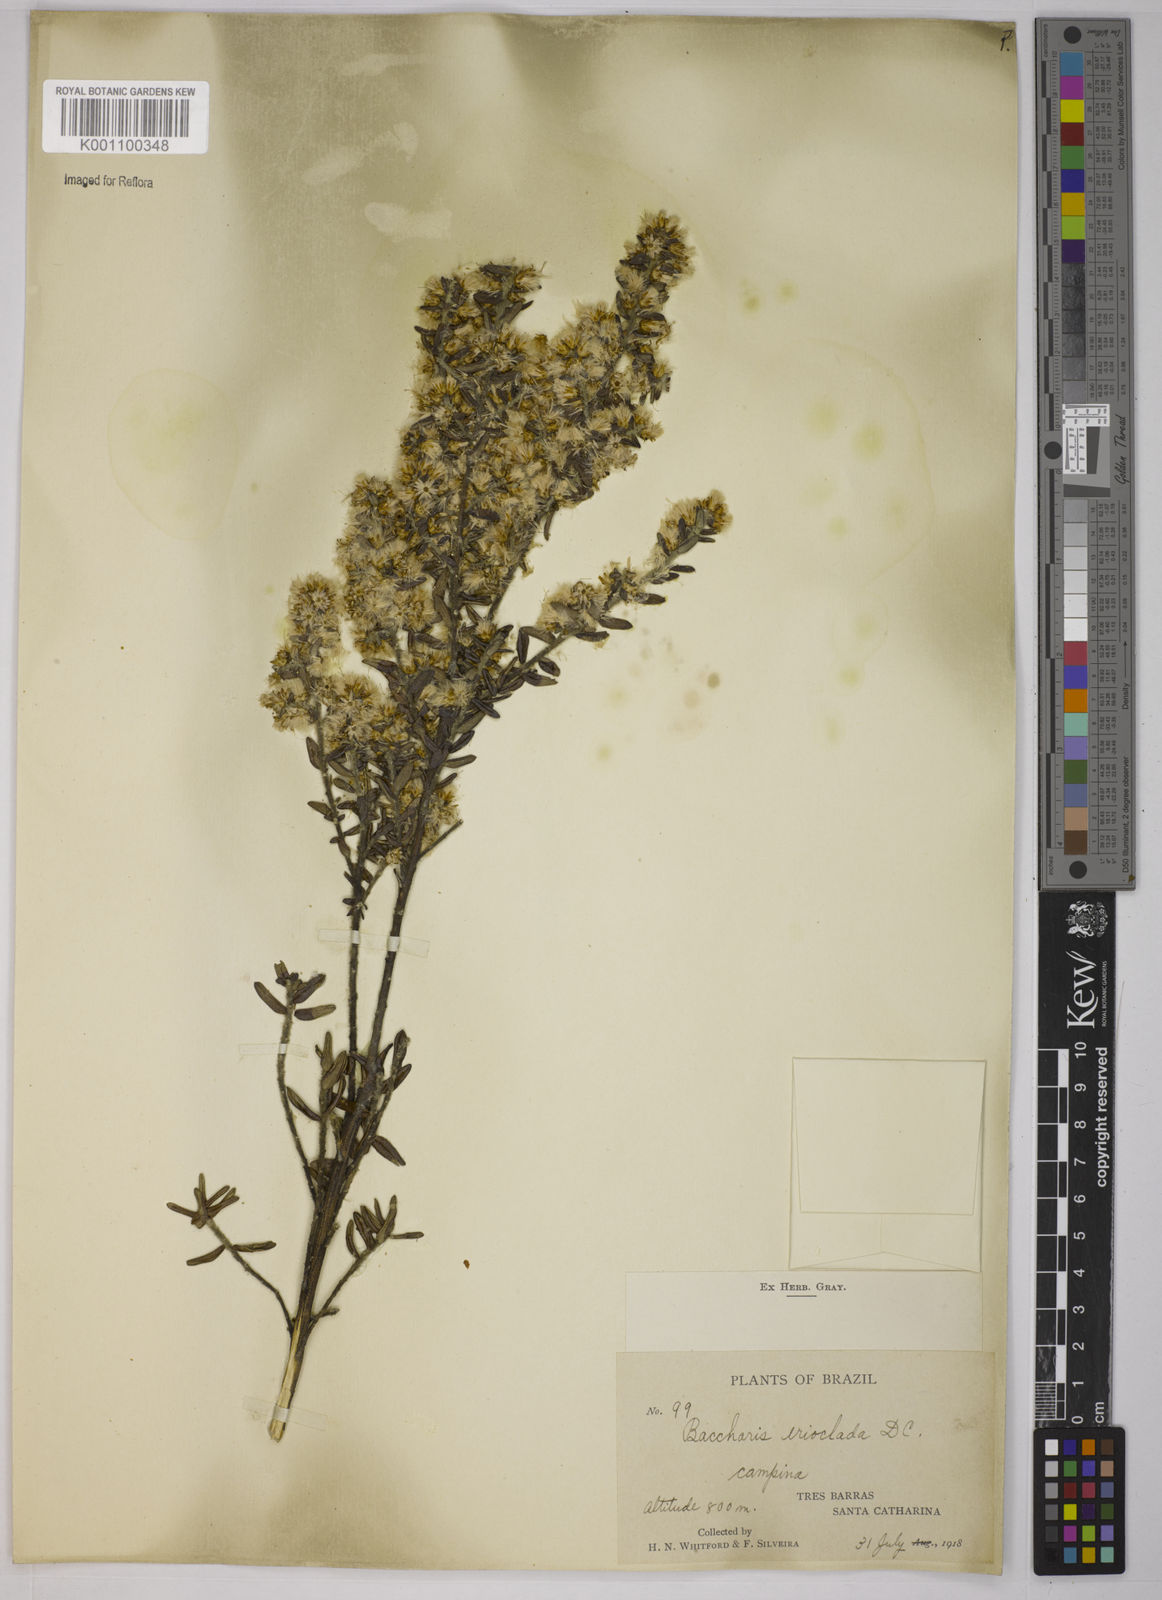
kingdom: Plantae
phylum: Tracheophyta
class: Magnoliopsida
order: Asterales
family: Asteraceae
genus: Baccharis
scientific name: Baccharis erioclada
